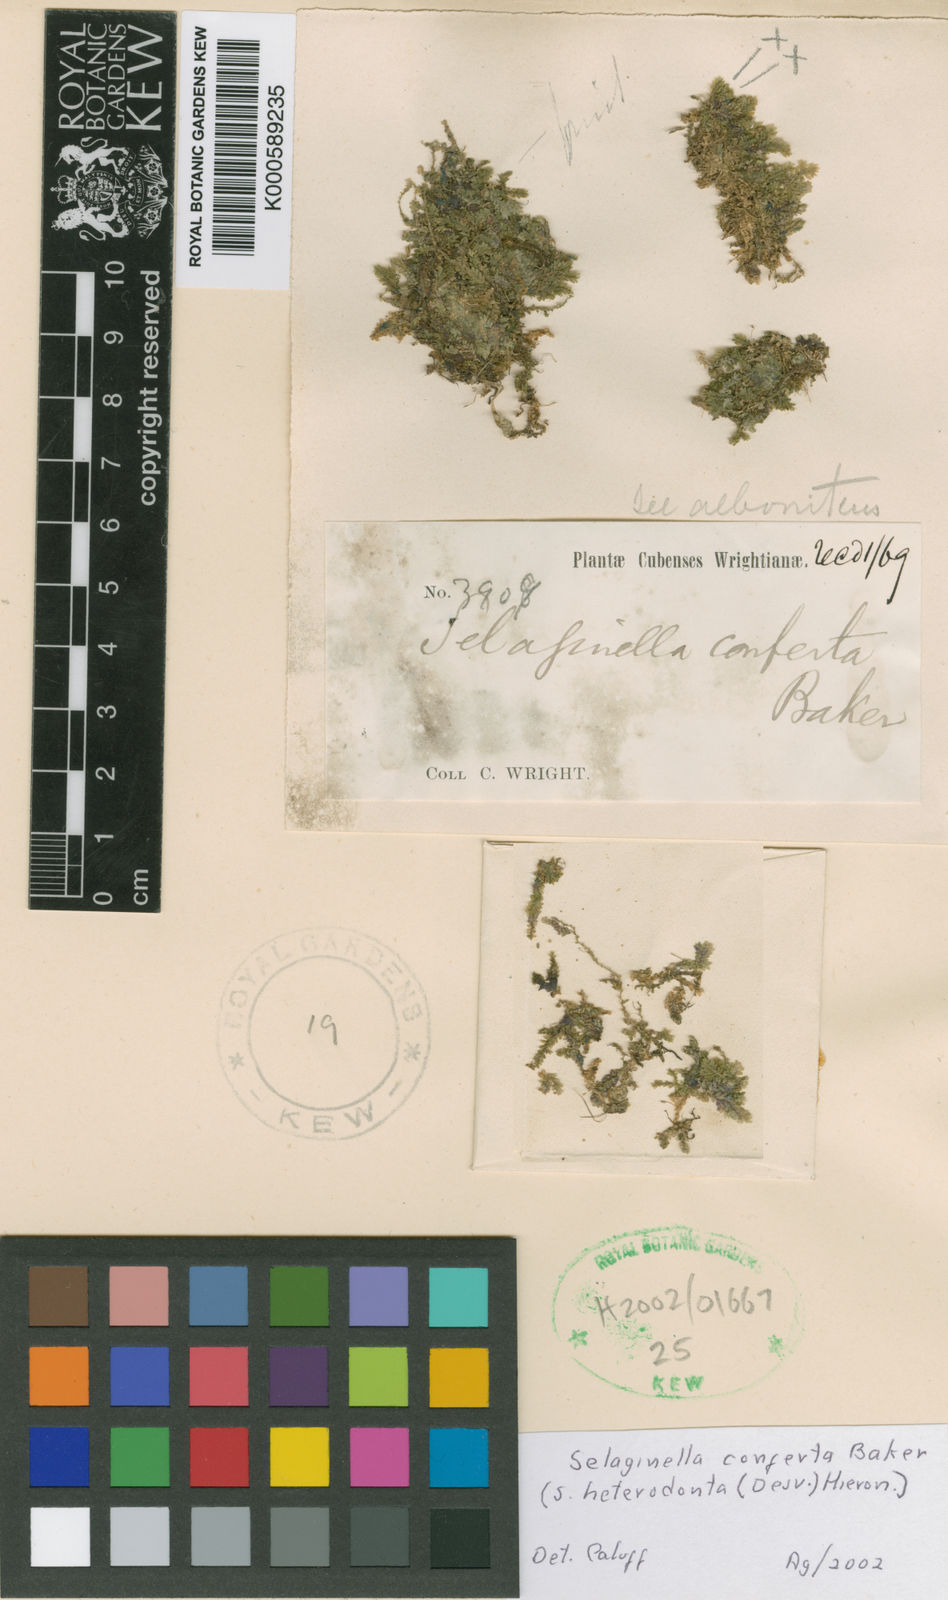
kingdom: Plantae
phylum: Tracheophyta
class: Lycopodiopsida
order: Selaginellales
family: Selaginellaceae
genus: Selaginella
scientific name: Selaginella plana
